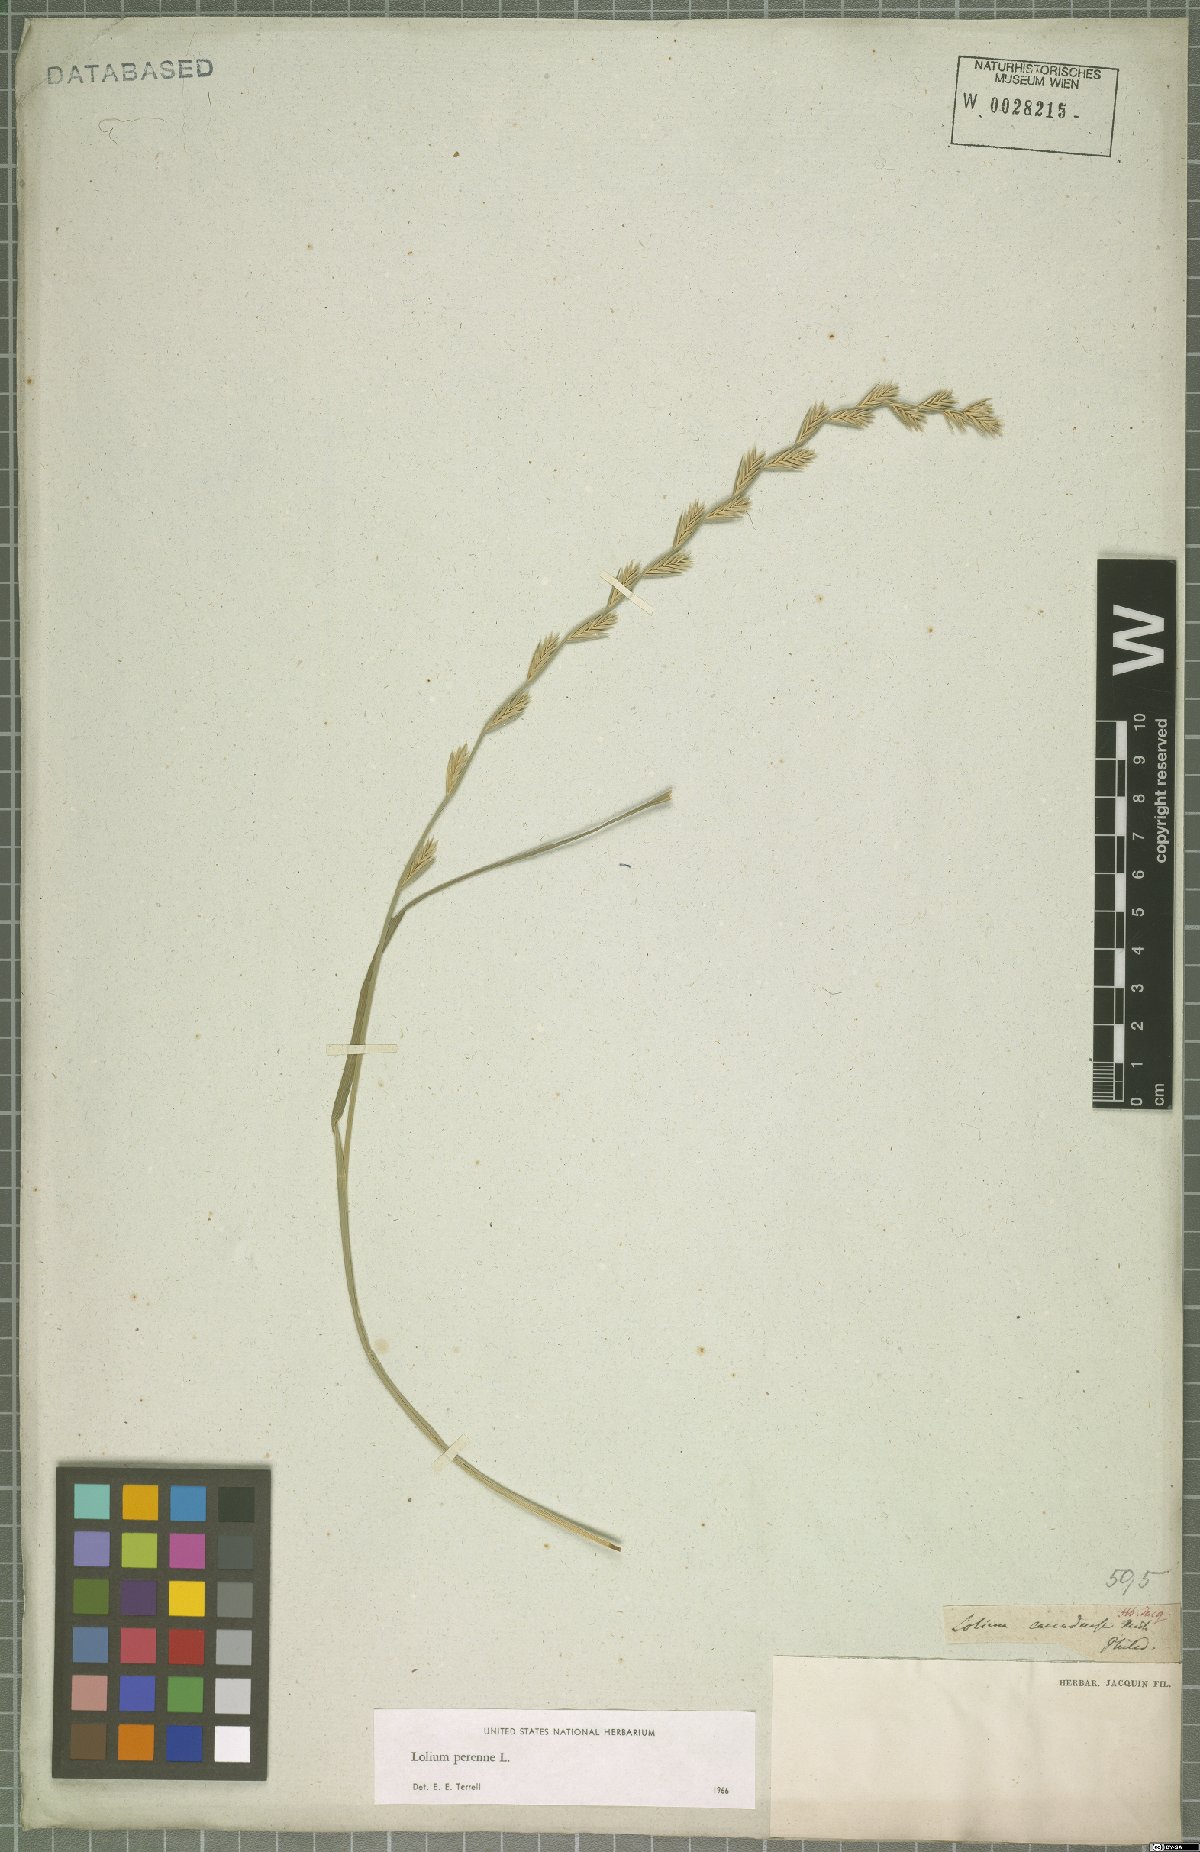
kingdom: Plantae
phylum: Tracheophyta
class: Liliopsida
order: Poales
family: Poaceae
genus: Lolium
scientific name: Lolium perenne
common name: Perennial ryegrass
